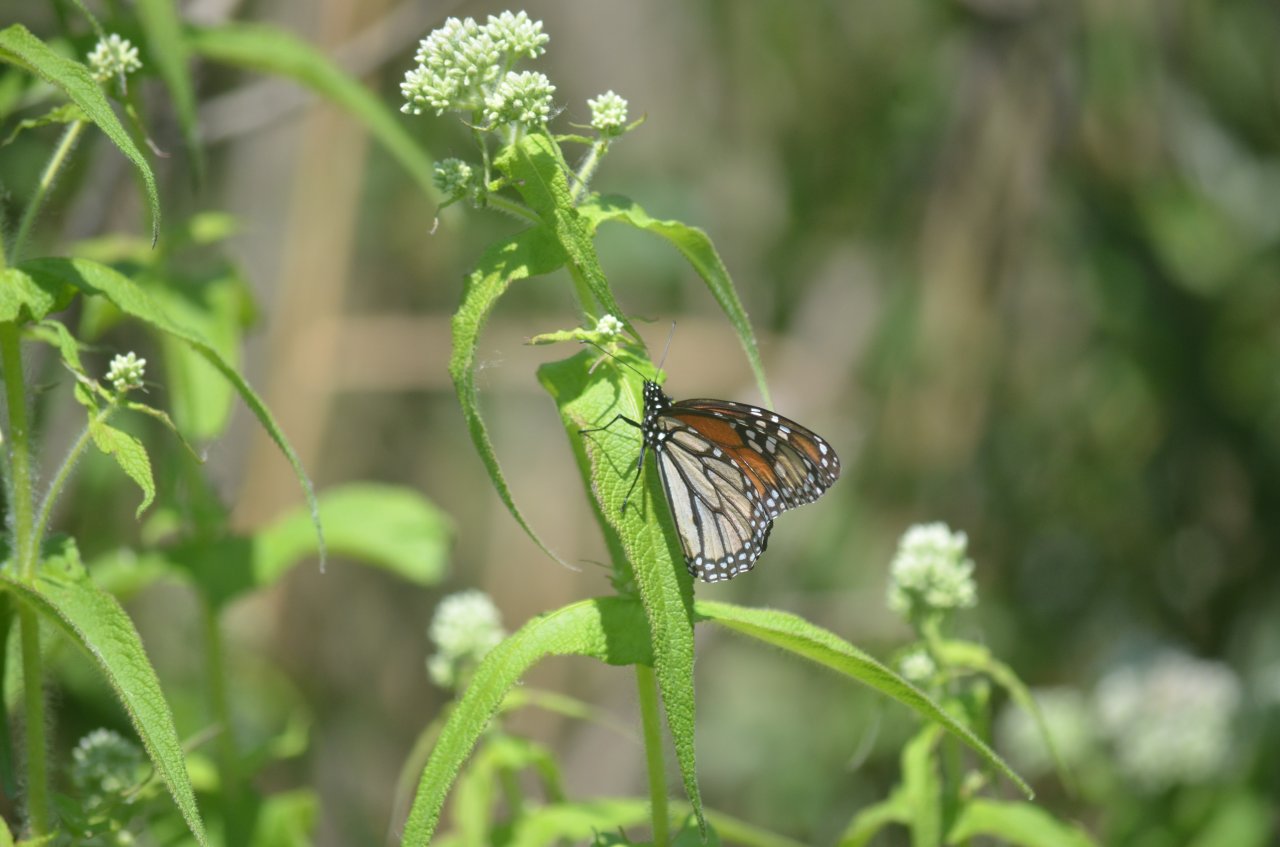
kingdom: Animalia
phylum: Arthropoda
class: Insecta
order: Lepidoptera
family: Nymphalidae
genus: Danaus
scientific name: Danaus plexippus
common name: Monarch
